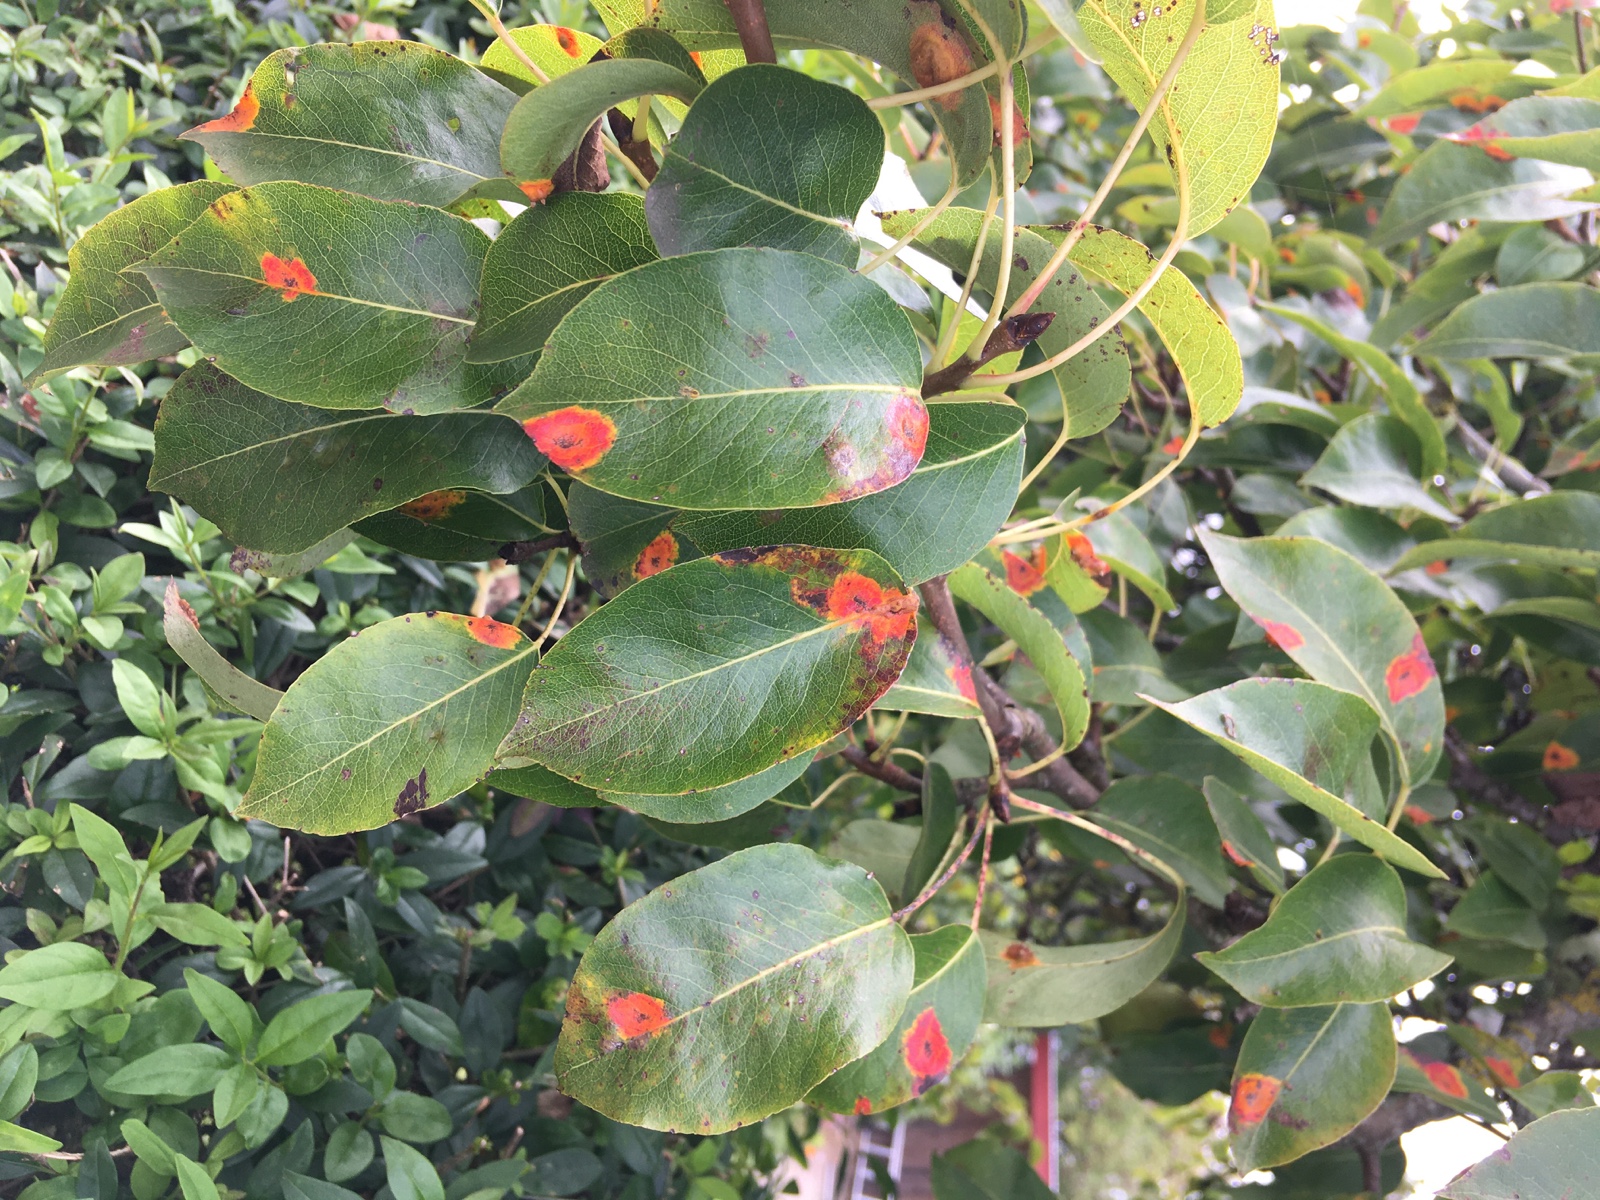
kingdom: Fungi
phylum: Basidiomycota
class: Pucciniomycetes
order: Pucciniales
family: Gymnosporangiaceae
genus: Gymnosporangium
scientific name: Gymnosporangium sabinae
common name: pæregitter-bævrerust
